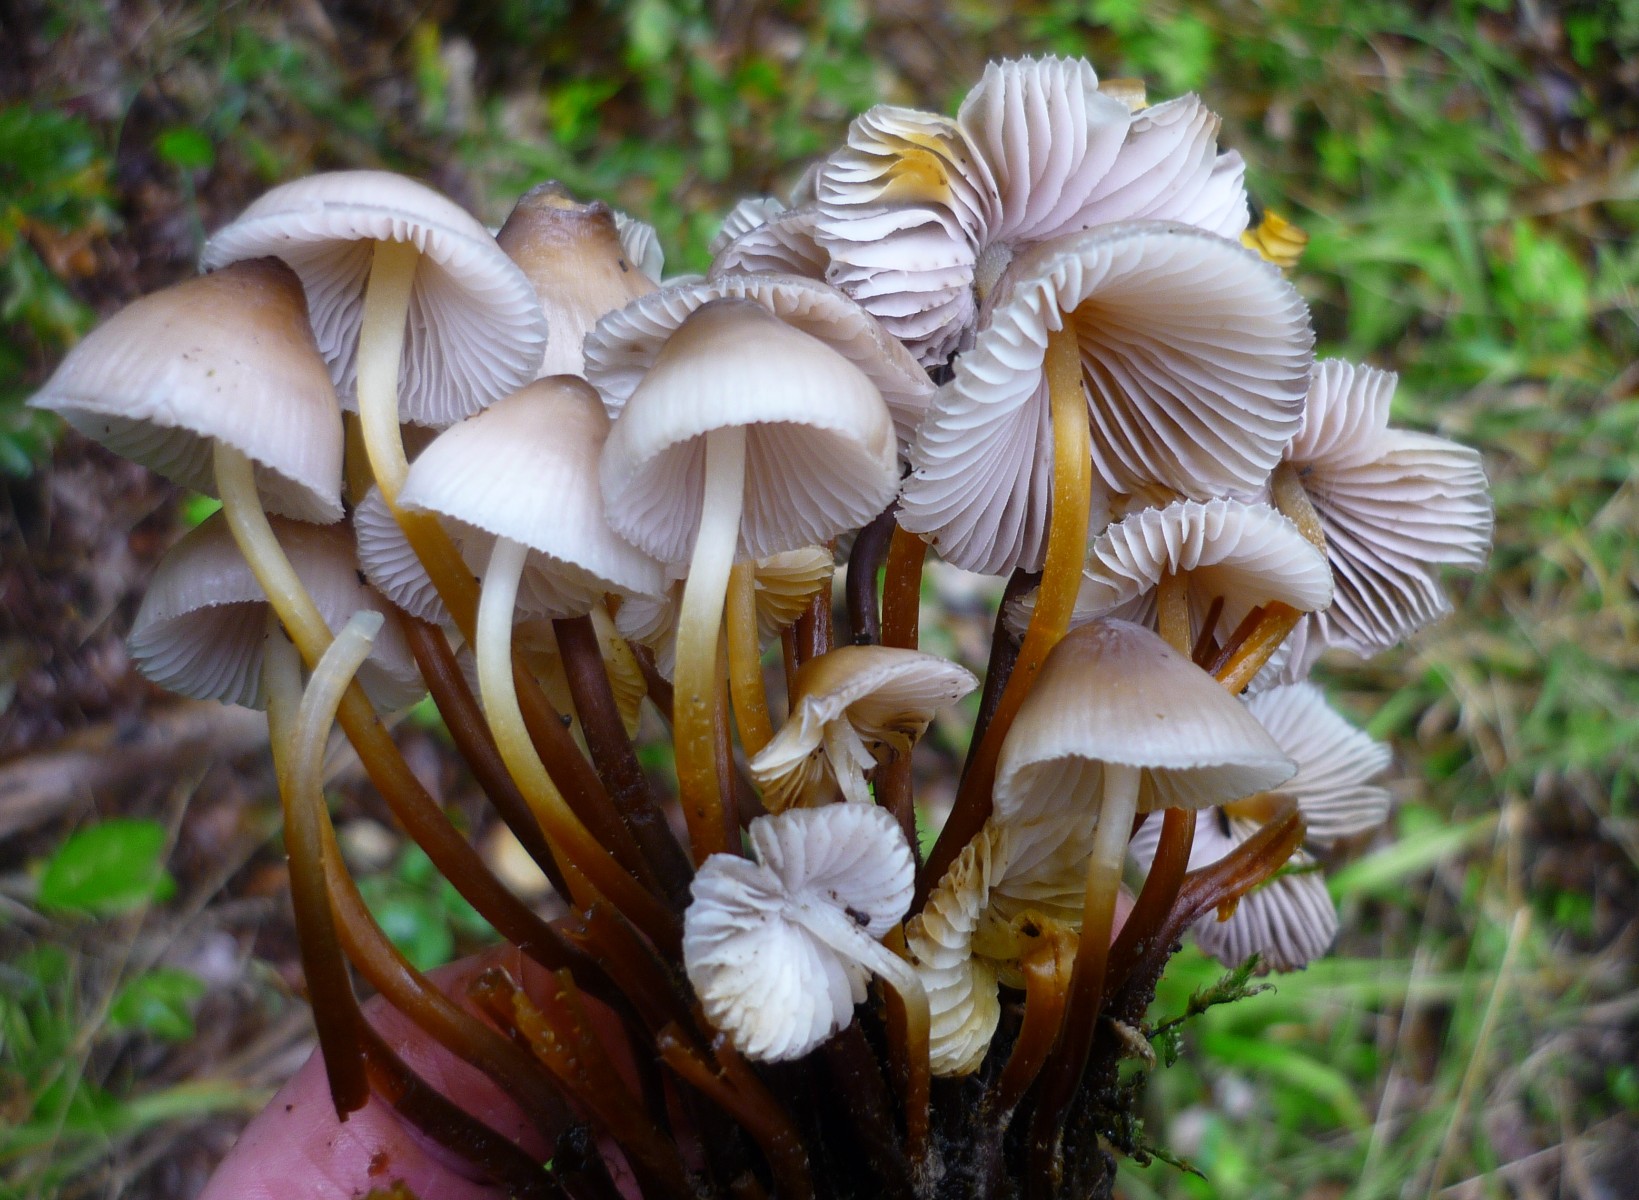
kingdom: Fungi
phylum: Basidiomycota
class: Agaricomycetes
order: Agaricales
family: Mycenaceae
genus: Mycena
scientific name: Mycena inclinata
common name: nikkende huesvamp
